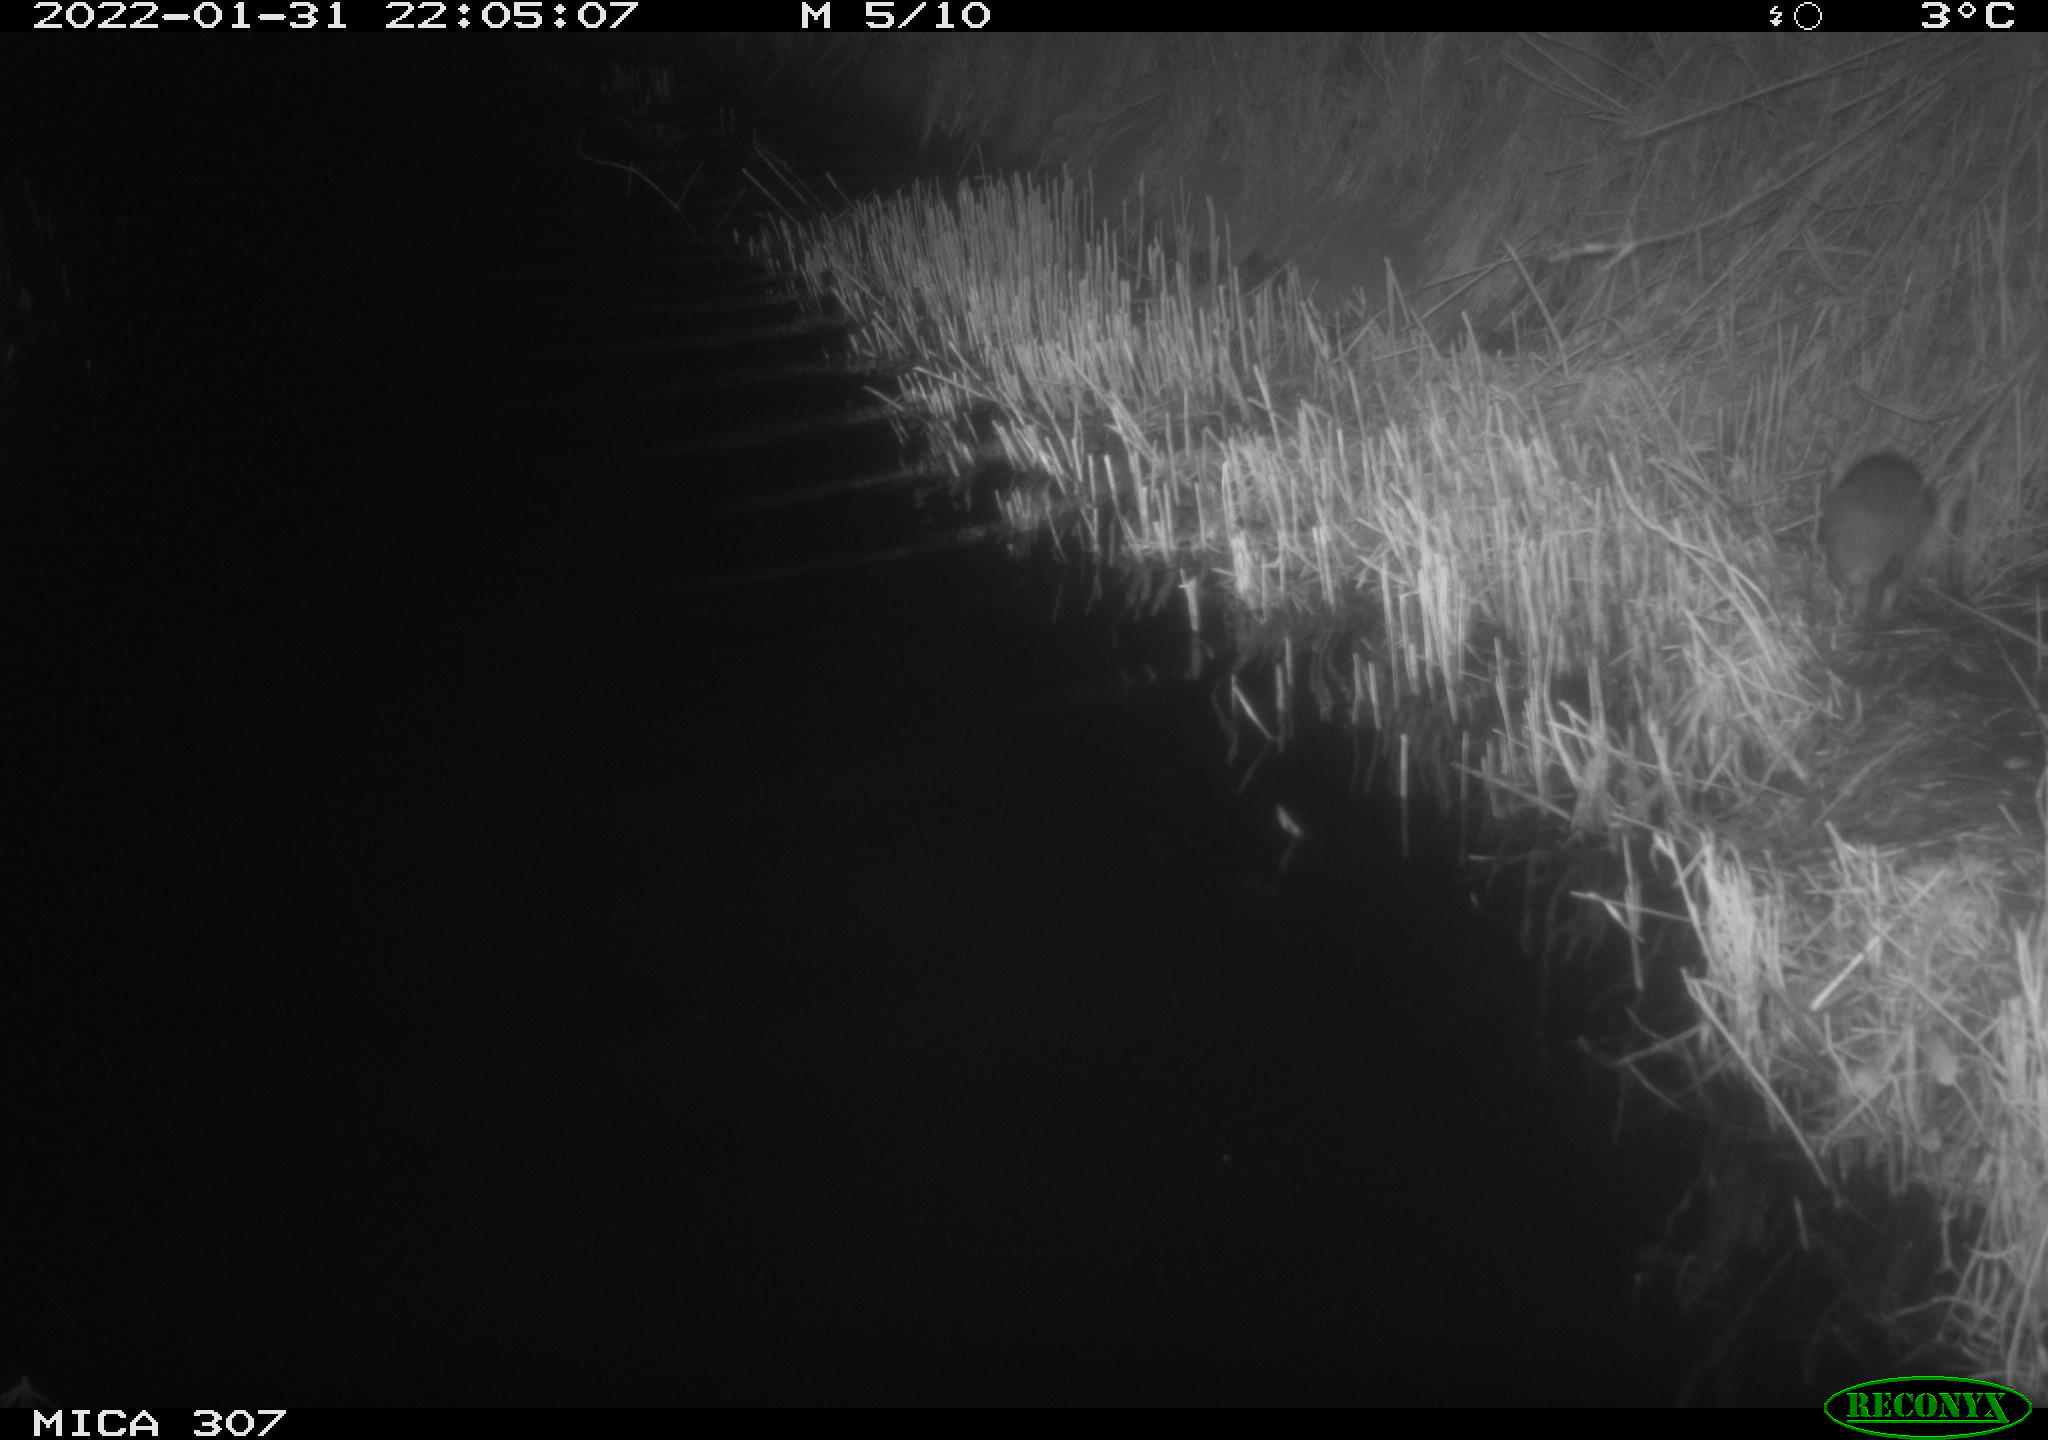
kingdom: Animalia
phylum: Chordata
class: Mammalia
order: Rodentia
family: Muridae
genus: Rattus
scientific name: Rattus norvegicus
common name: Brown rat
